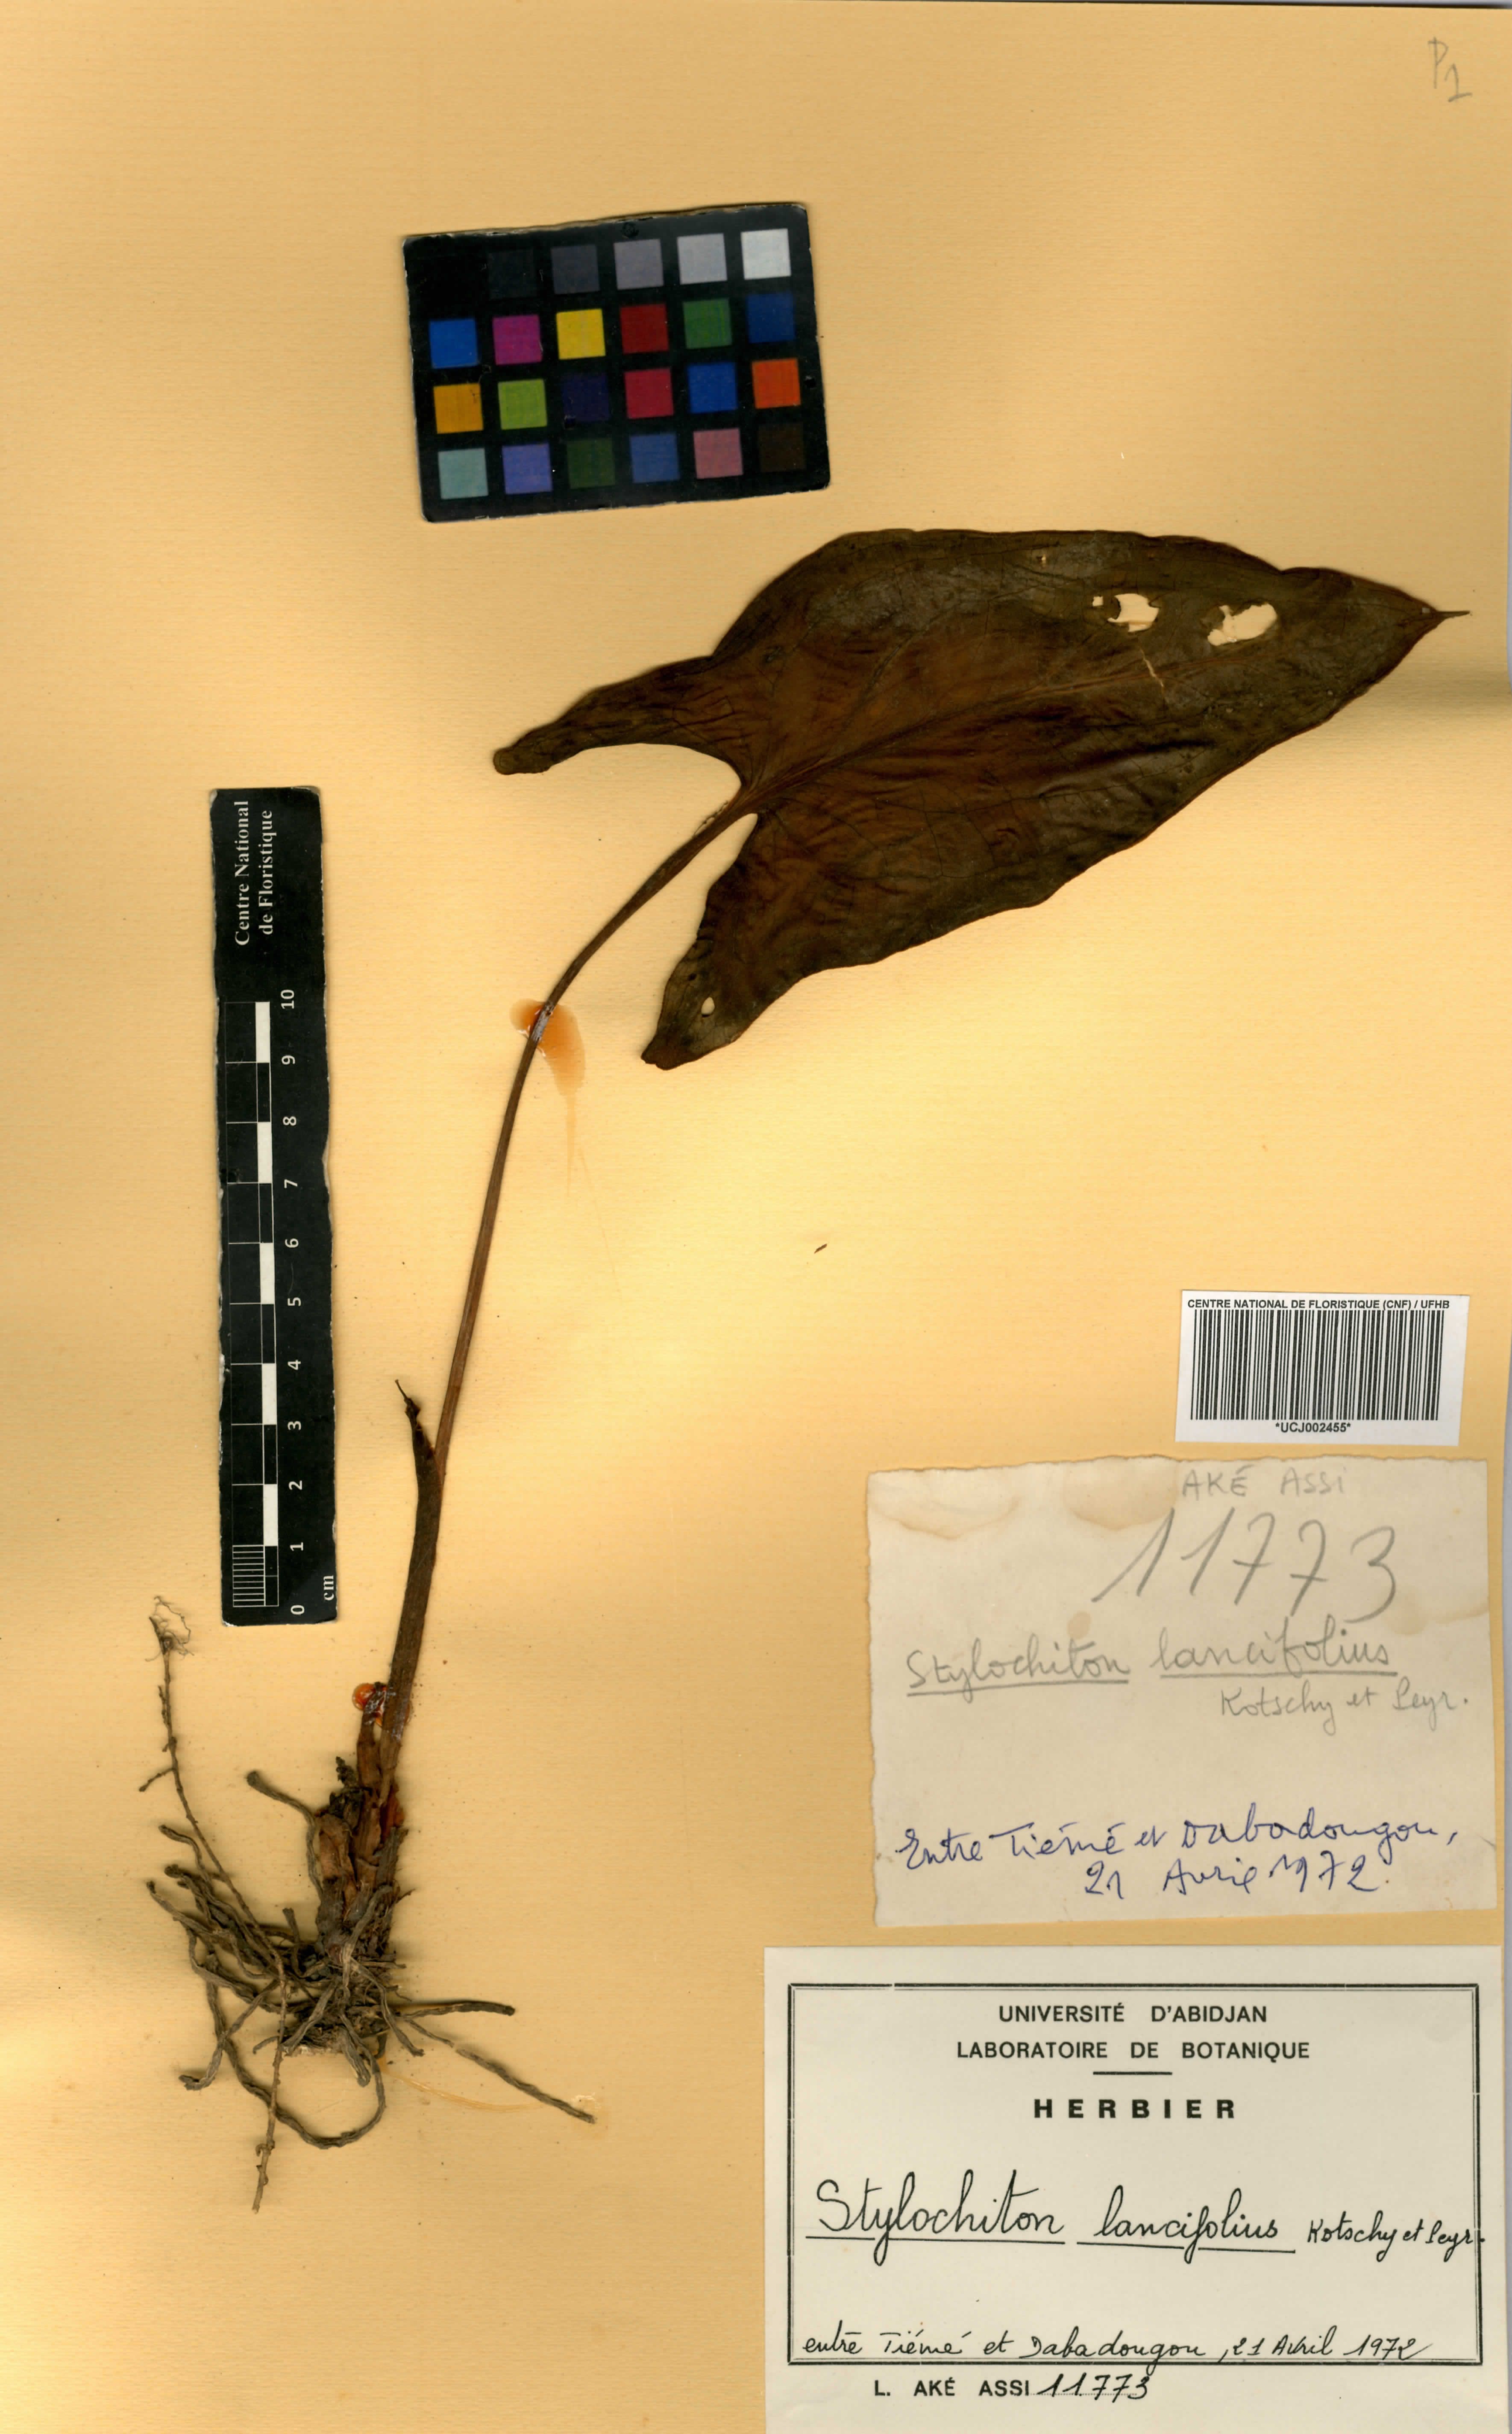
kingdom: Plantae
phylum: Tracheophyta
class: Liliopsida
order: Alismatales
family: Araceae
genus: Stylochaeton
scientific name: Stylochaeton lancifolium
